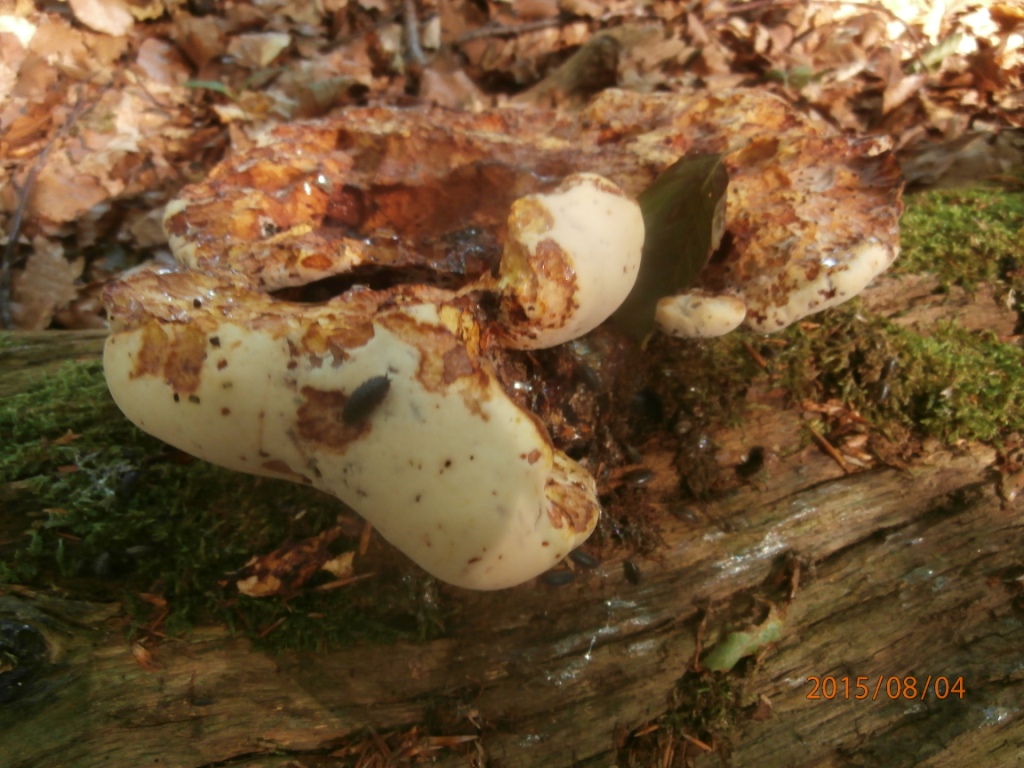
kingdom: Fungi
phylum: Basidiomycota
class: Agaricomycetes
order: Polyporales
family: Fomitopsidaceae
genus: Buglossoporus
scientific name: Buglossoporus quercinus
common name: egetunge
